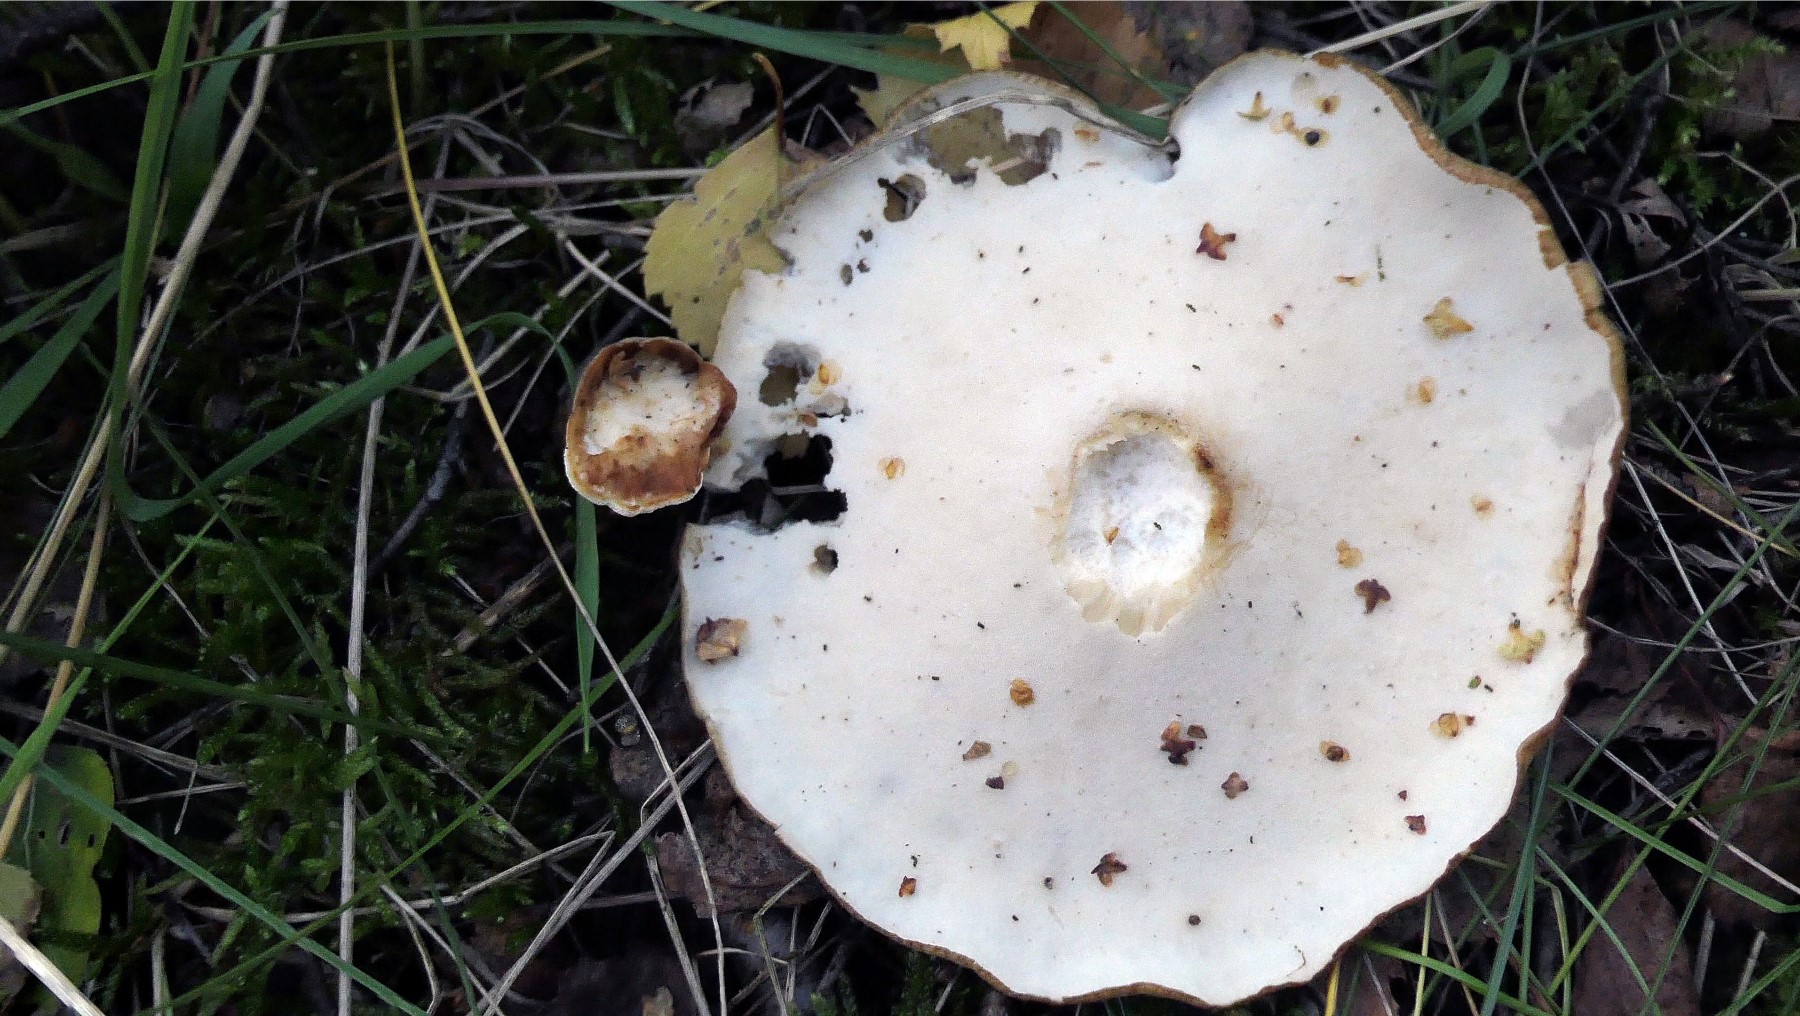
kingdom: Fungi
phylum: Basidiomycota
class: Agaricomycetes
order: Polyporales
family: Polyporaceae
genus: Picipes
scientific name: Picipes melanopus
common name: sortfodet stilkporesvamp
